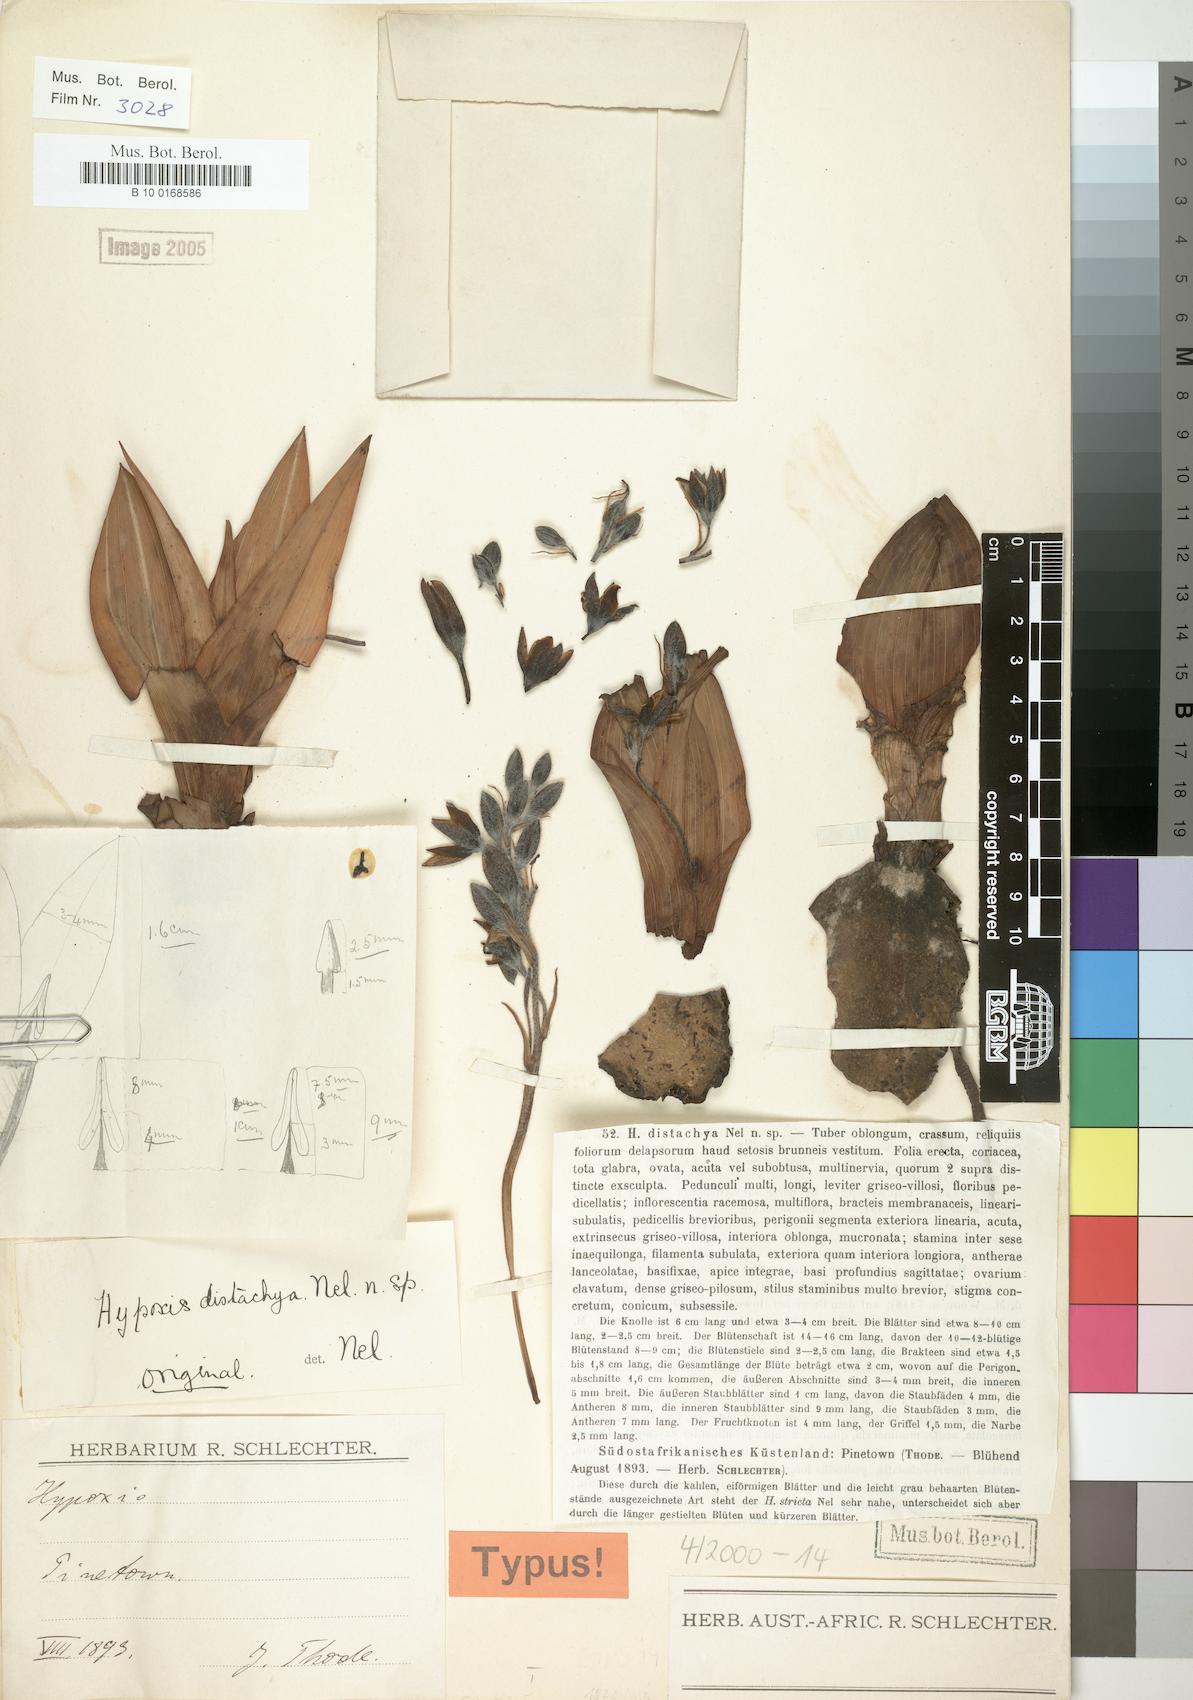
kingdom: Plantae
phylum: Tracheophyta
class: Liliopsida
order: Asparagales
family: Hypoxidaceae
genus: Hypoxis
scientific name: Hypoxis colchicifolia
